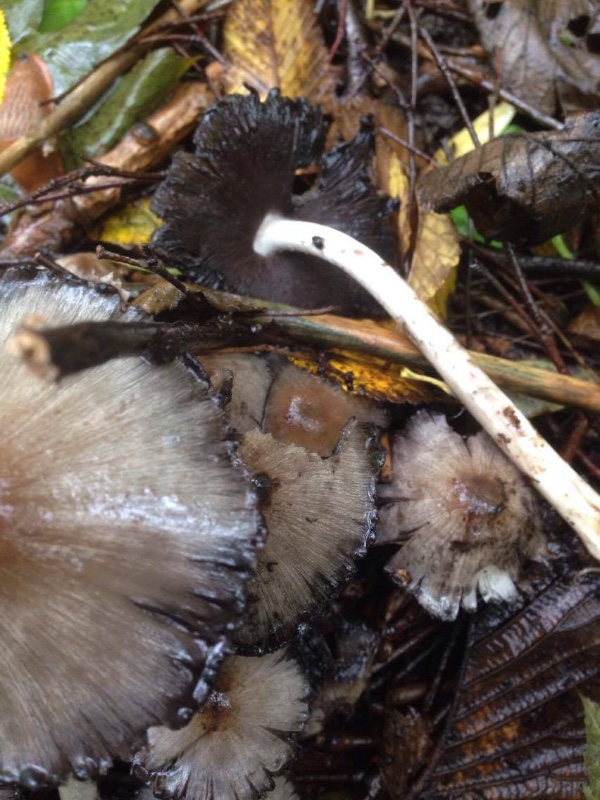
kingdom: Fungi
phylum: Basidiomycota
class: Agaricomycetes
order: Agaricales
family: Psathyrellaceae
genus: Coprinopsis
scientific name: Coprinopsis atramentaria
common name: almindelig blækhat
